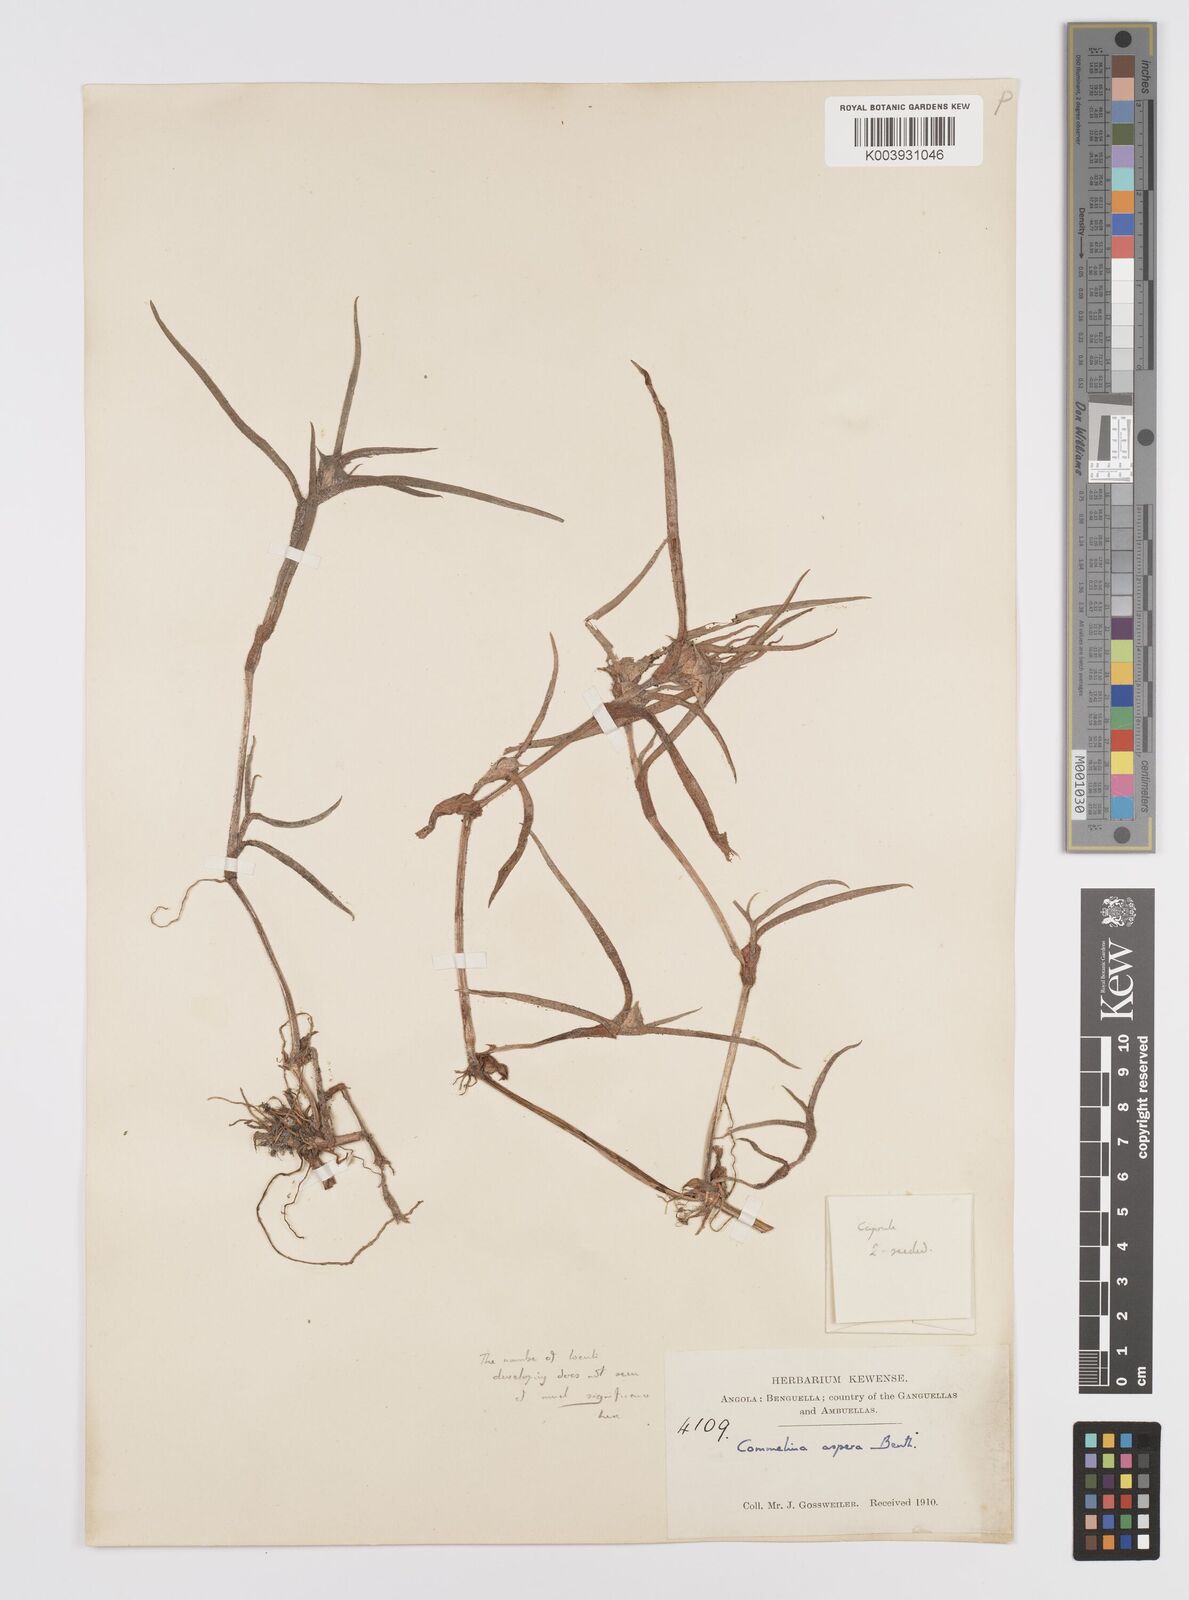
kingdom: Plantae
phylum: Tracheophyta
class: Liliopsida
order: Commelinales
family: Commelinaceae
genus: Commelina
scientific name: Commelina aspera
